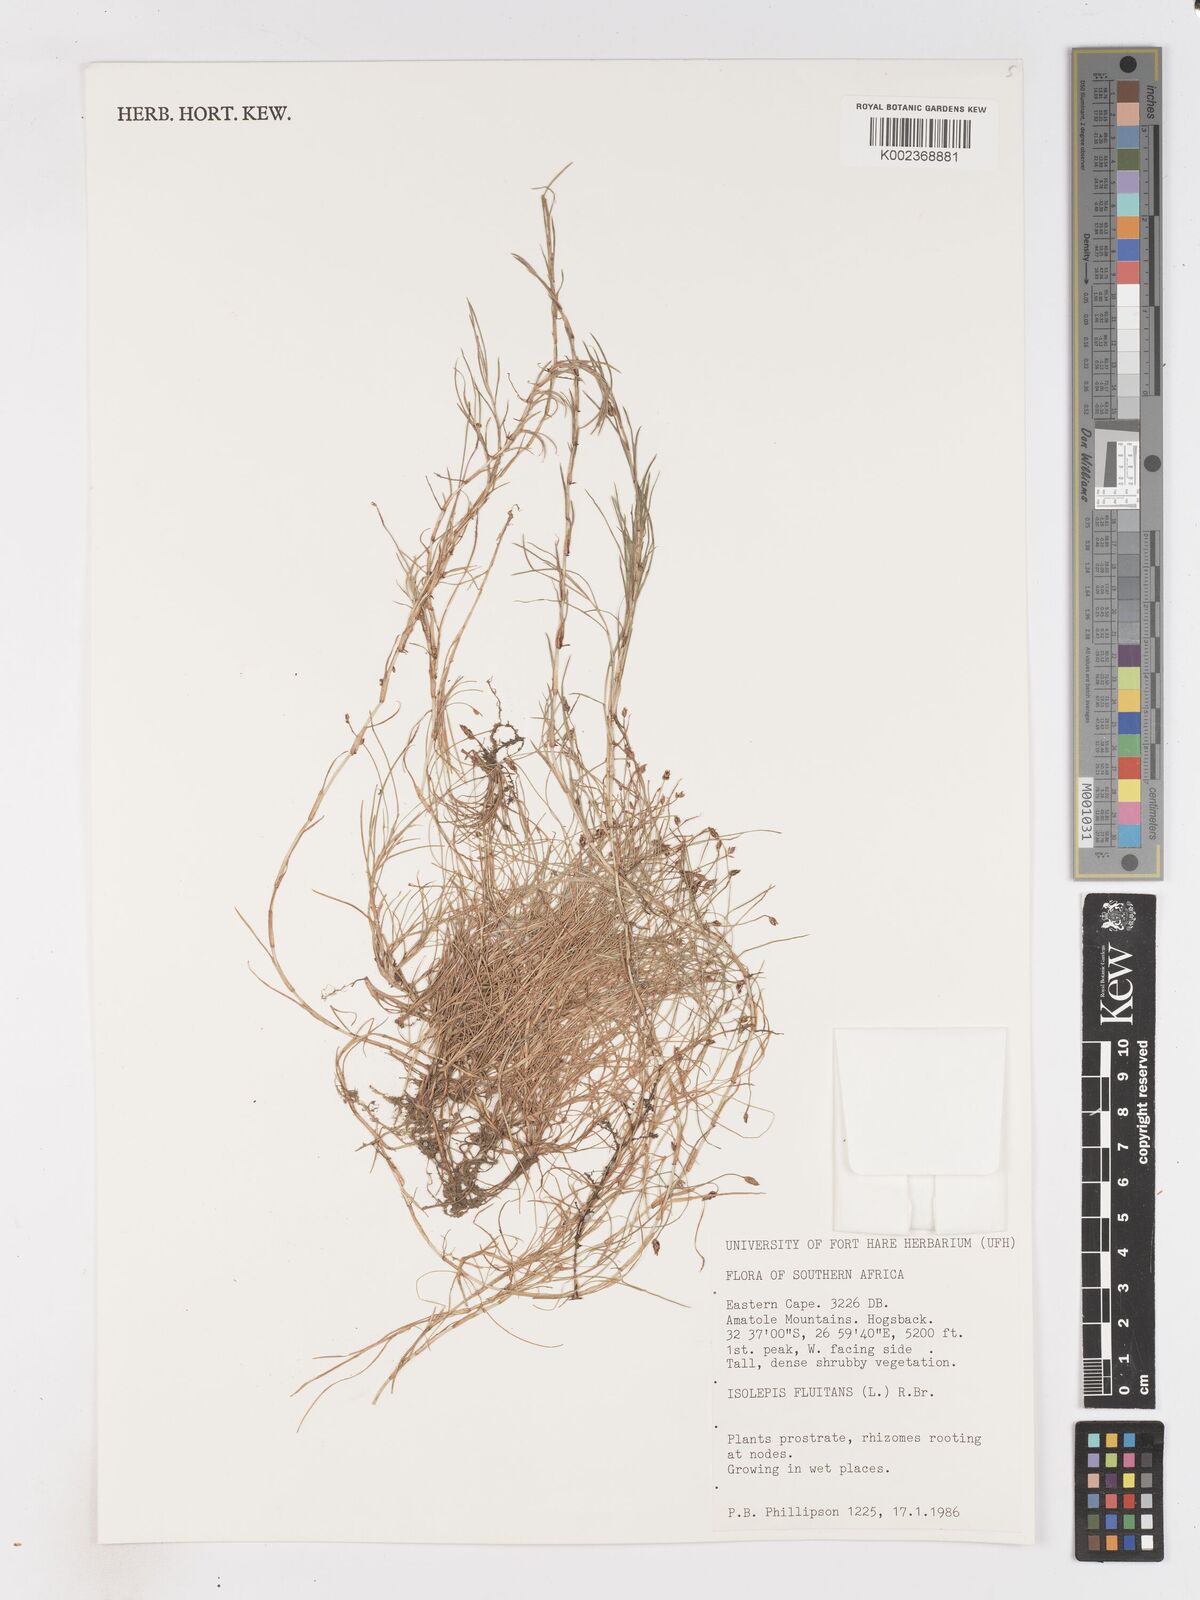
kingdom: Plantae
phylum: Tracheophyta
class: Liliopsida
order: Poales
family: Cyperaceae
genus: Isolepis
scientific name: Isolepis
